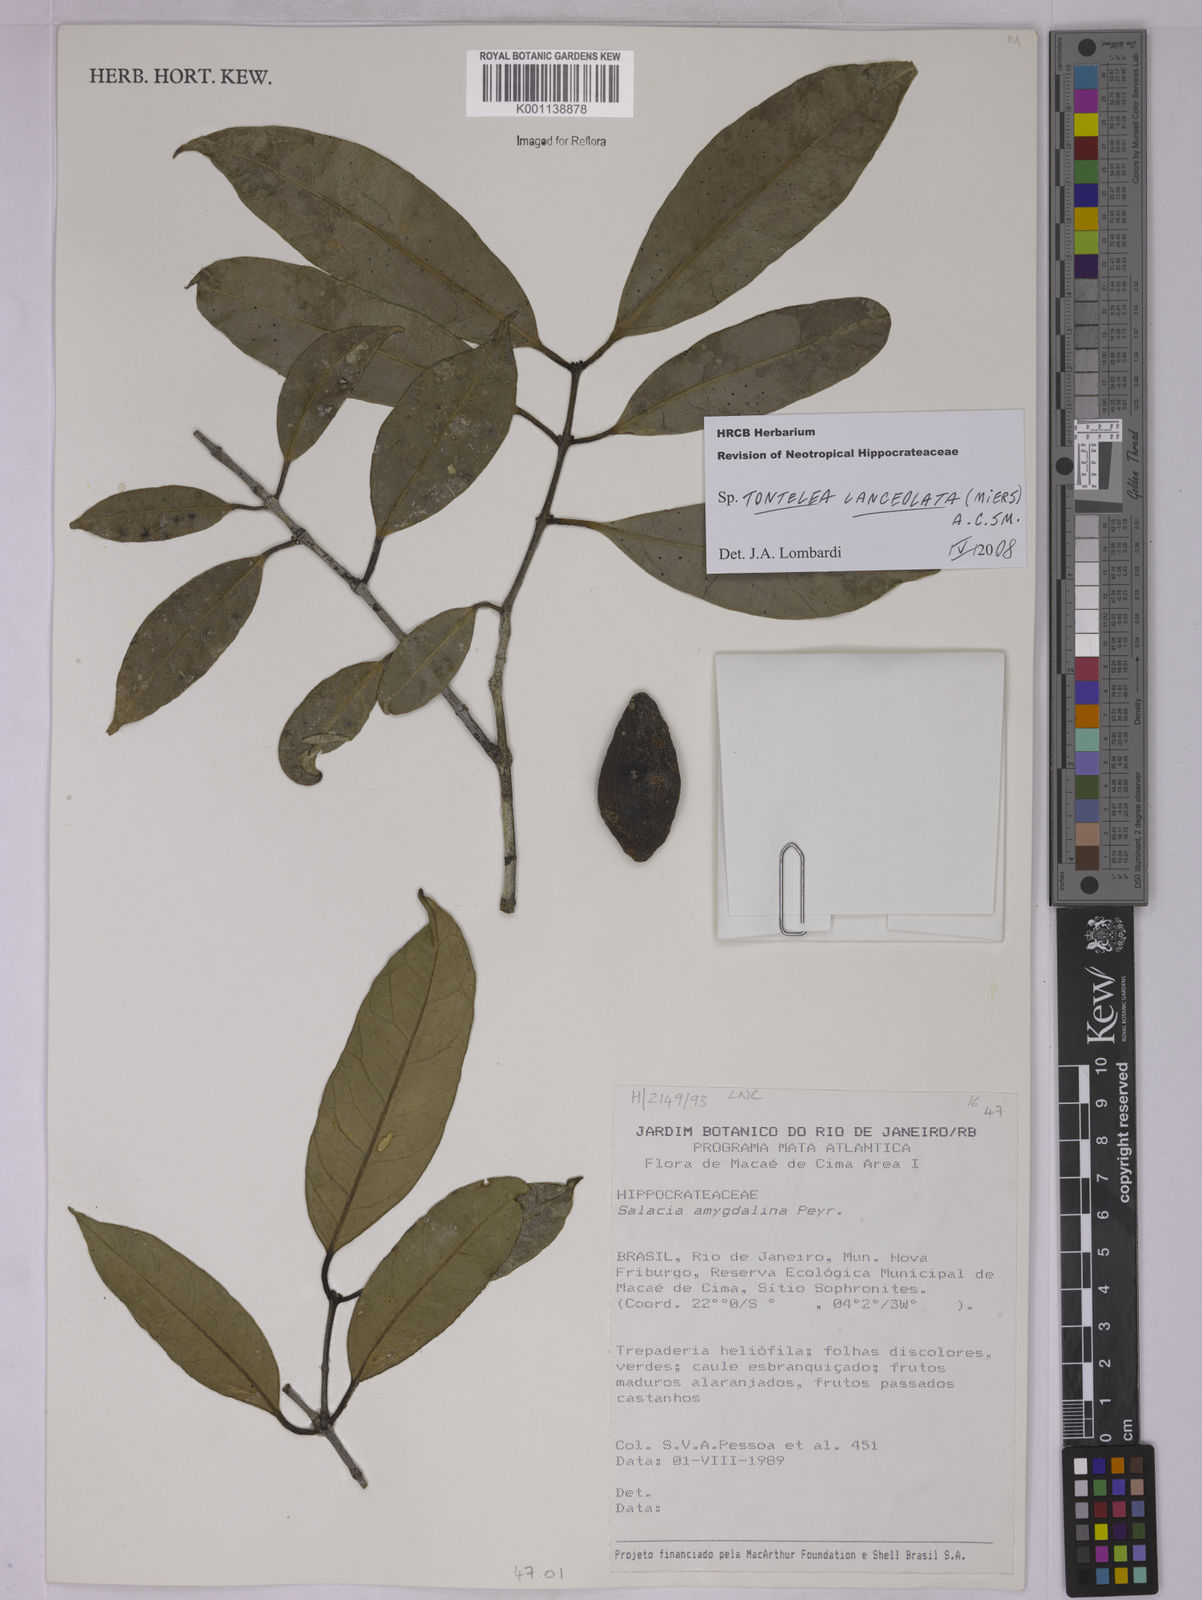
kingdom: Plantae
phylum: Tracheophyta
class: Magnoliopsida
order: Celastrales
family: Celastraceae
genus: Tontelea
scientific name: Tontelea lanceolata
